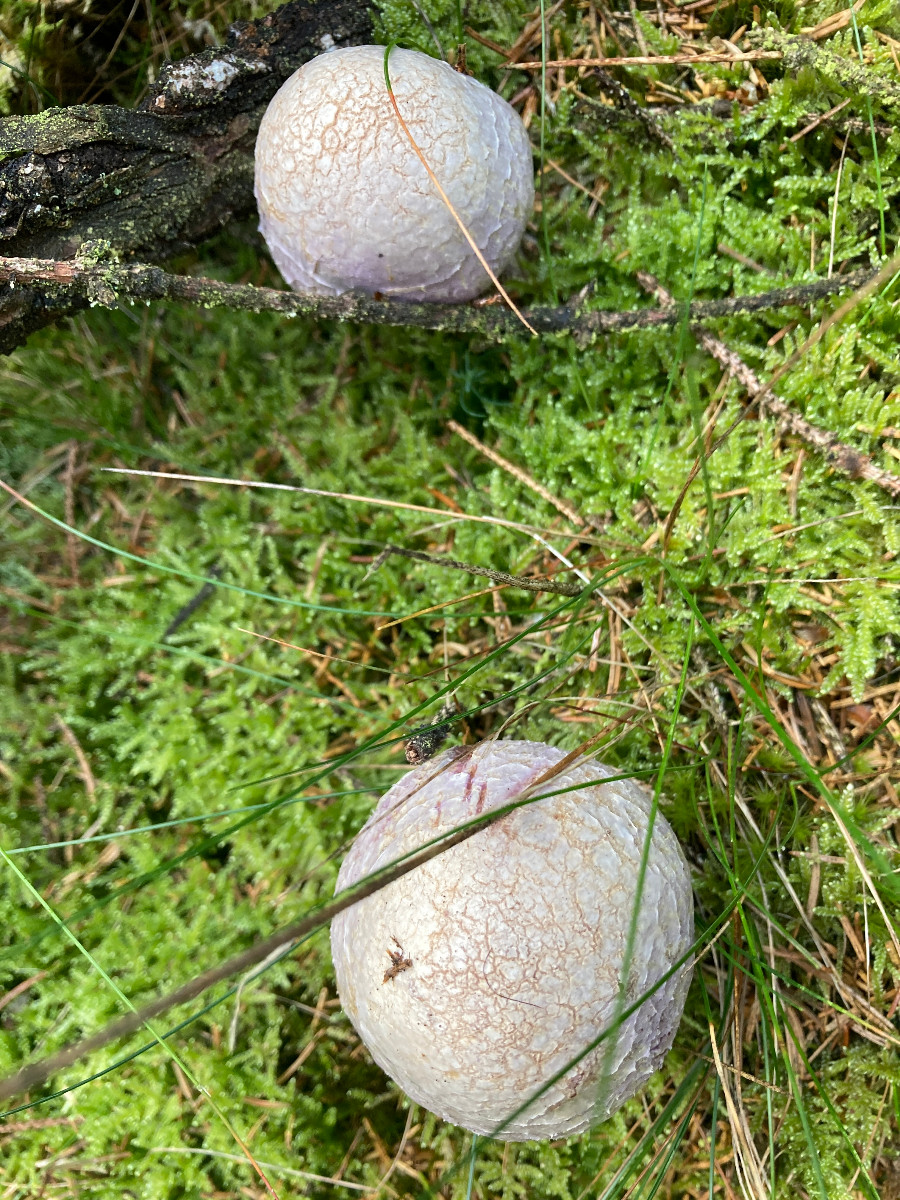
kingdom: Fungi
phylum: Basidiomycota
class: Agaricomycetes
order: Agaricales
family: Cortinariaceae
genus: Cortinarius
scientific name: Cortinarius traganus
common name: safrankødet slørhat
